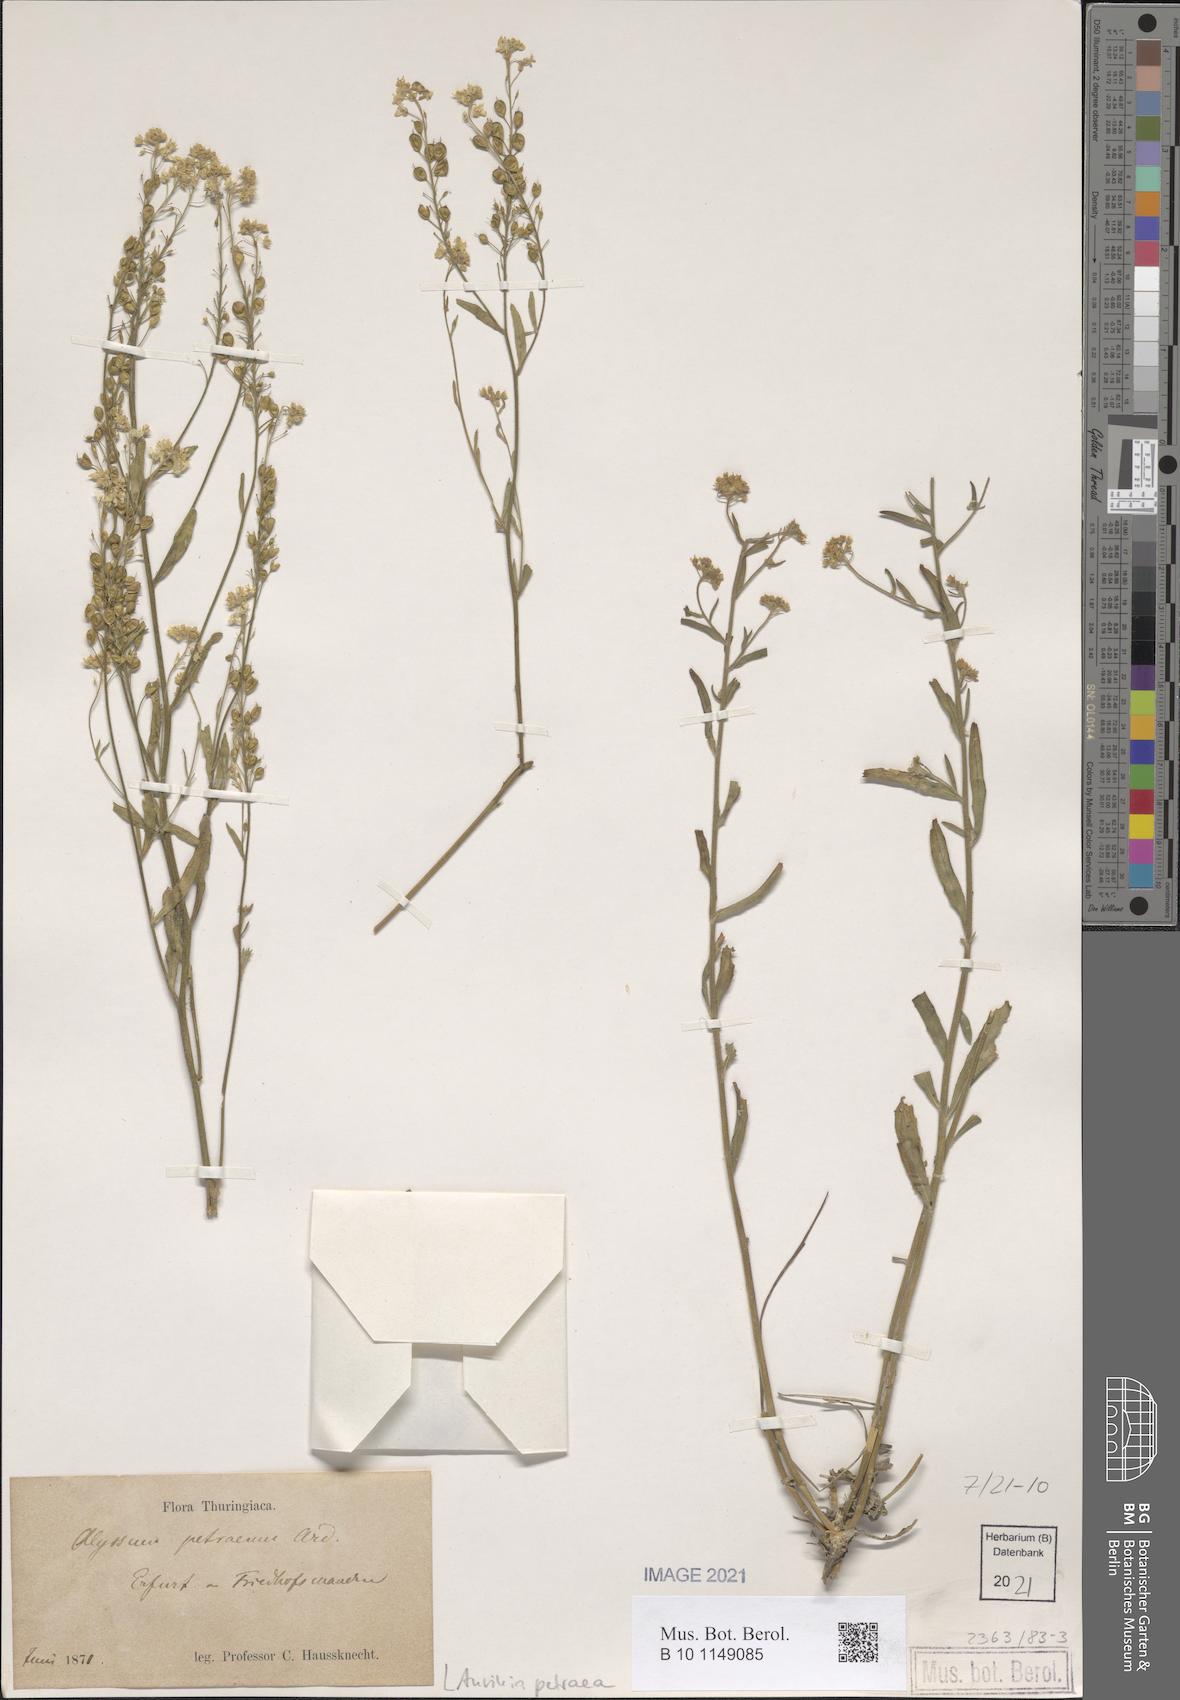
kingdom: Plantae
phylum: Tracheophyta
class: Magnoliopsida
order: Brassicales
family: Brassicaceae
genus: Aurinia
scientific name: Aurinia petraea
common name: Goldentuft
